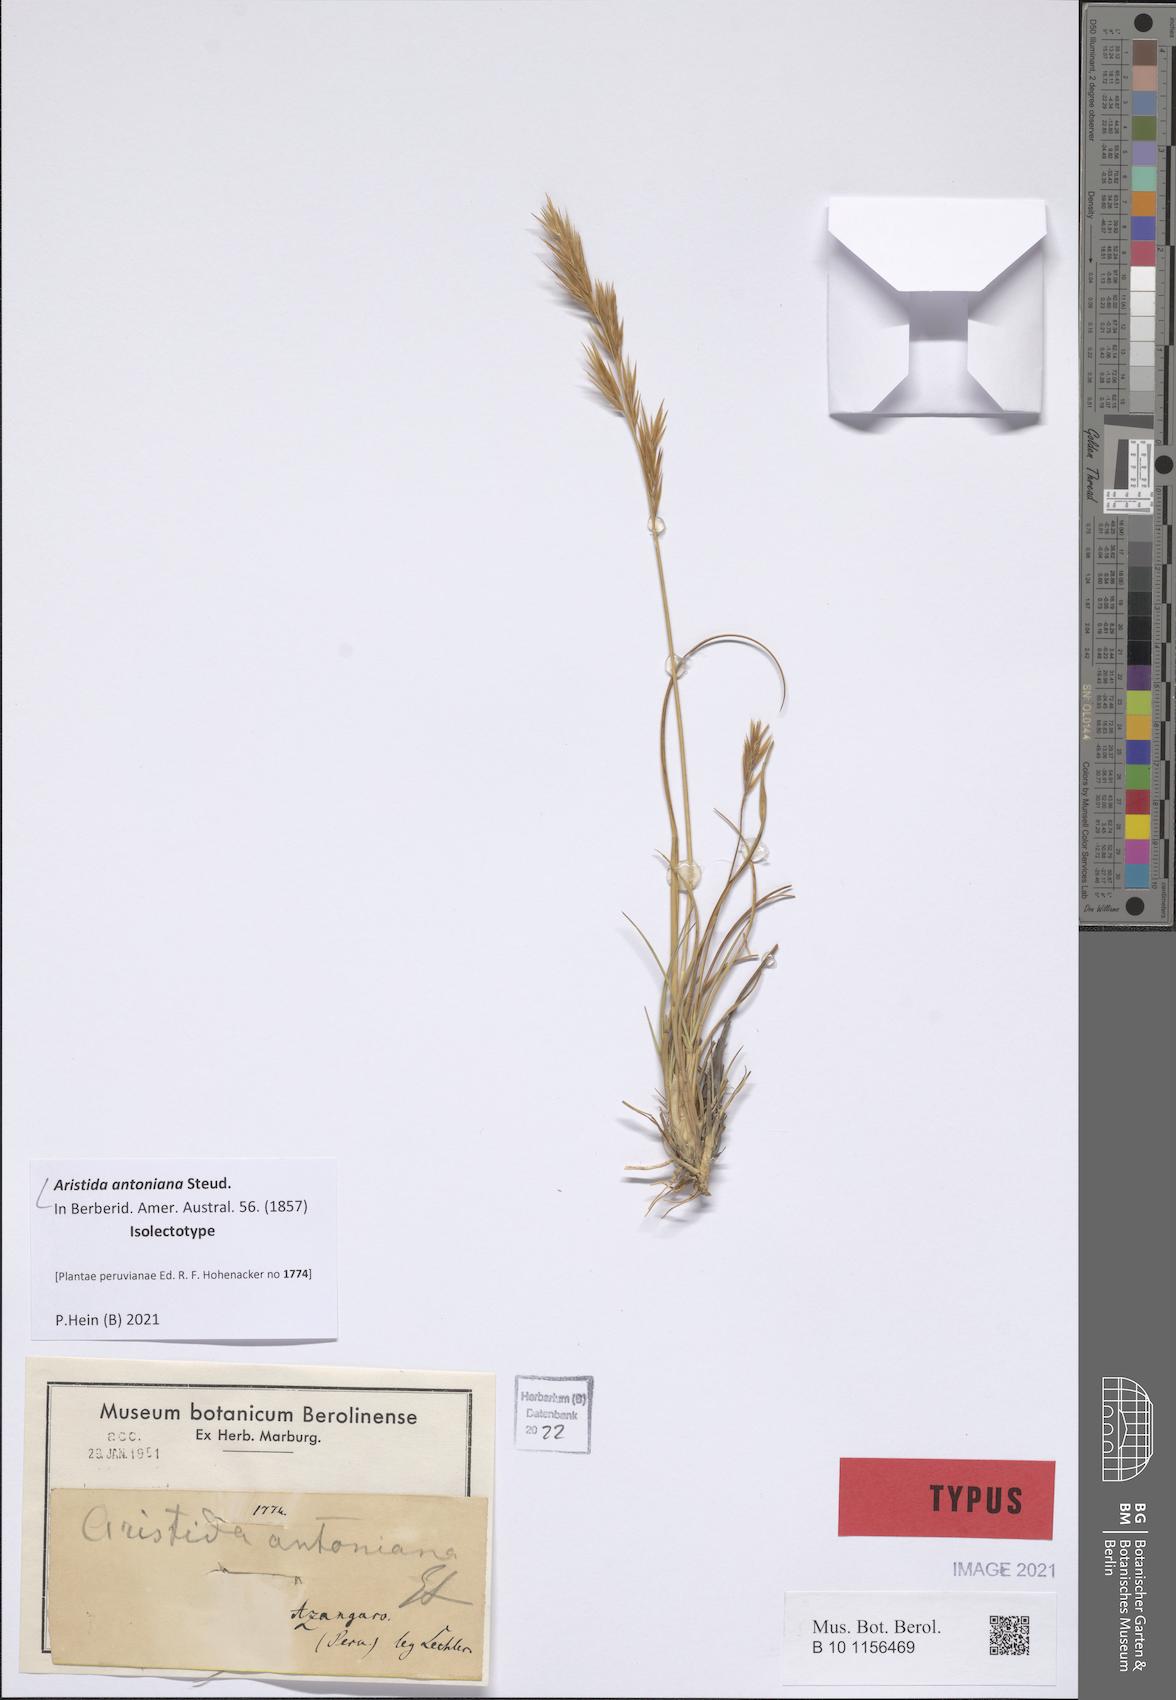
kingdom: Plantae
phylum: Tracheophyta
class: Liliopsida
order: Poales
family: Poaceae
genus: Aristida
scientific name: Aristida antoniana
